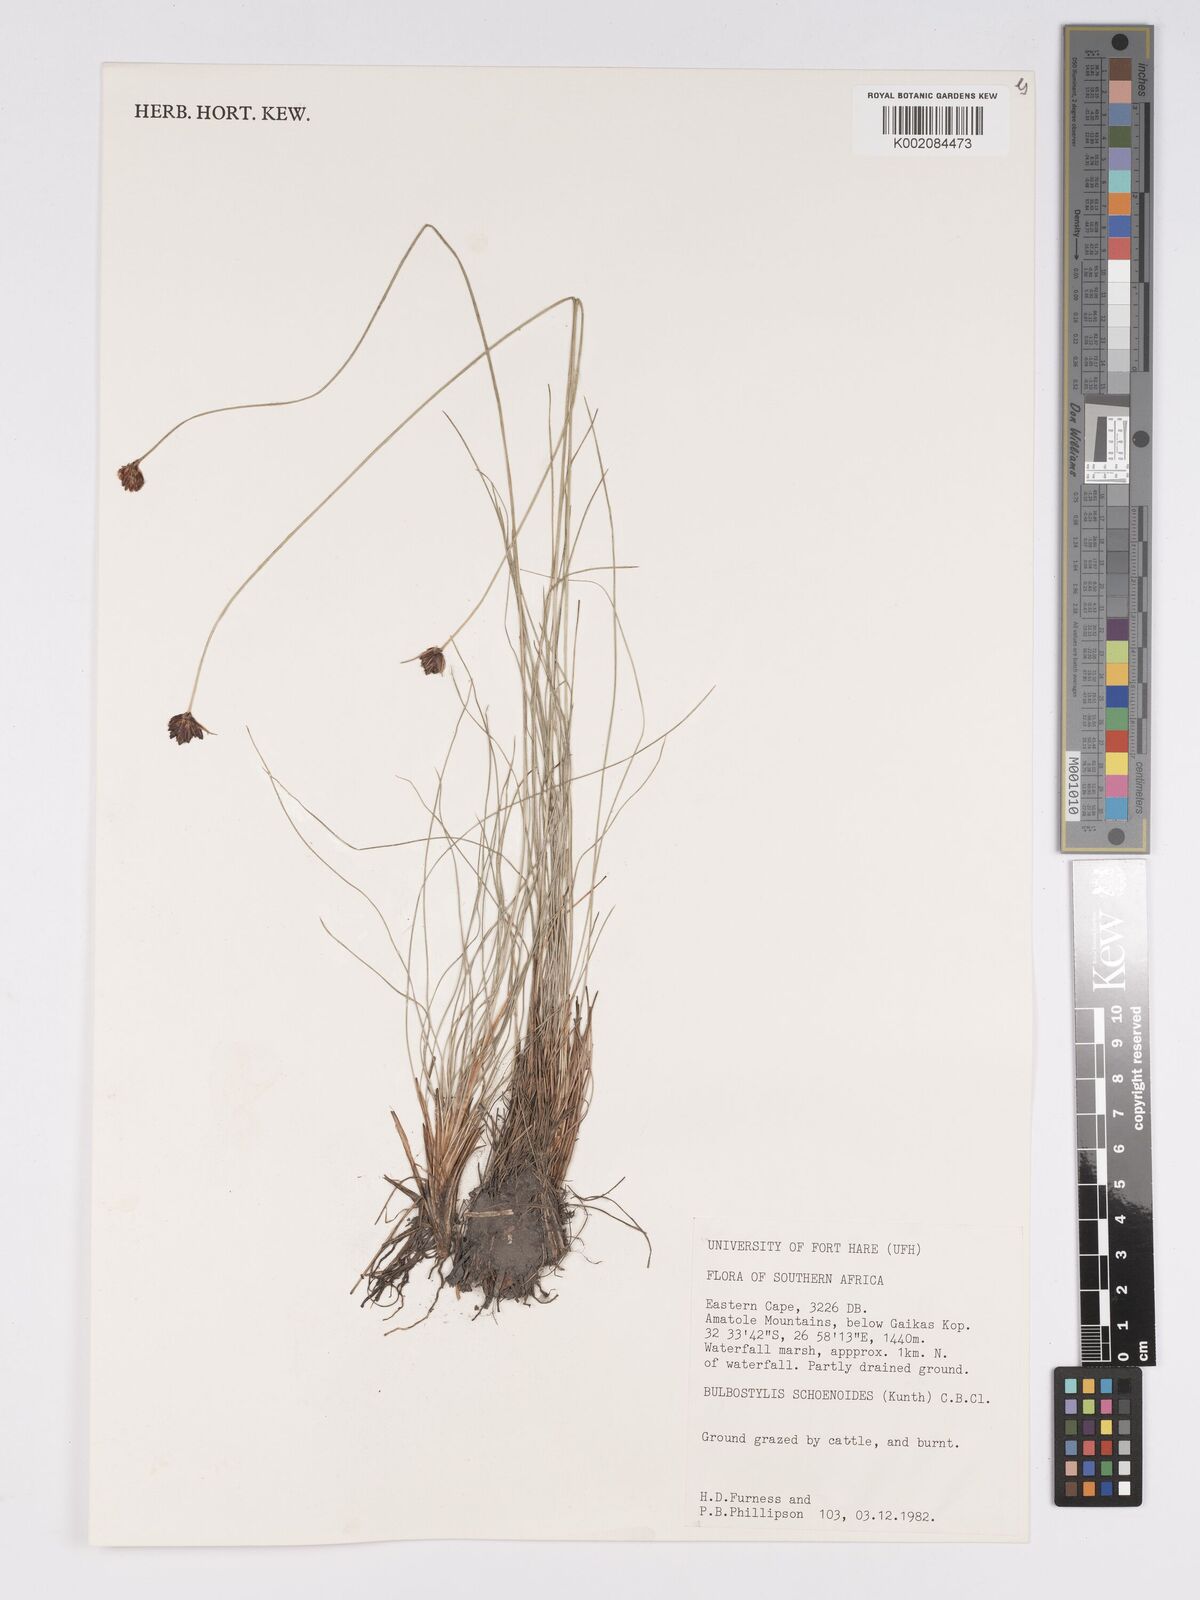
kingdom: Plantae
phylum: Tracheophyta
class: Liliopsida
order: Poales
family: Cyperaceae
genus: Bulbostylis
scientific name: Bulbostylis schoenoides
